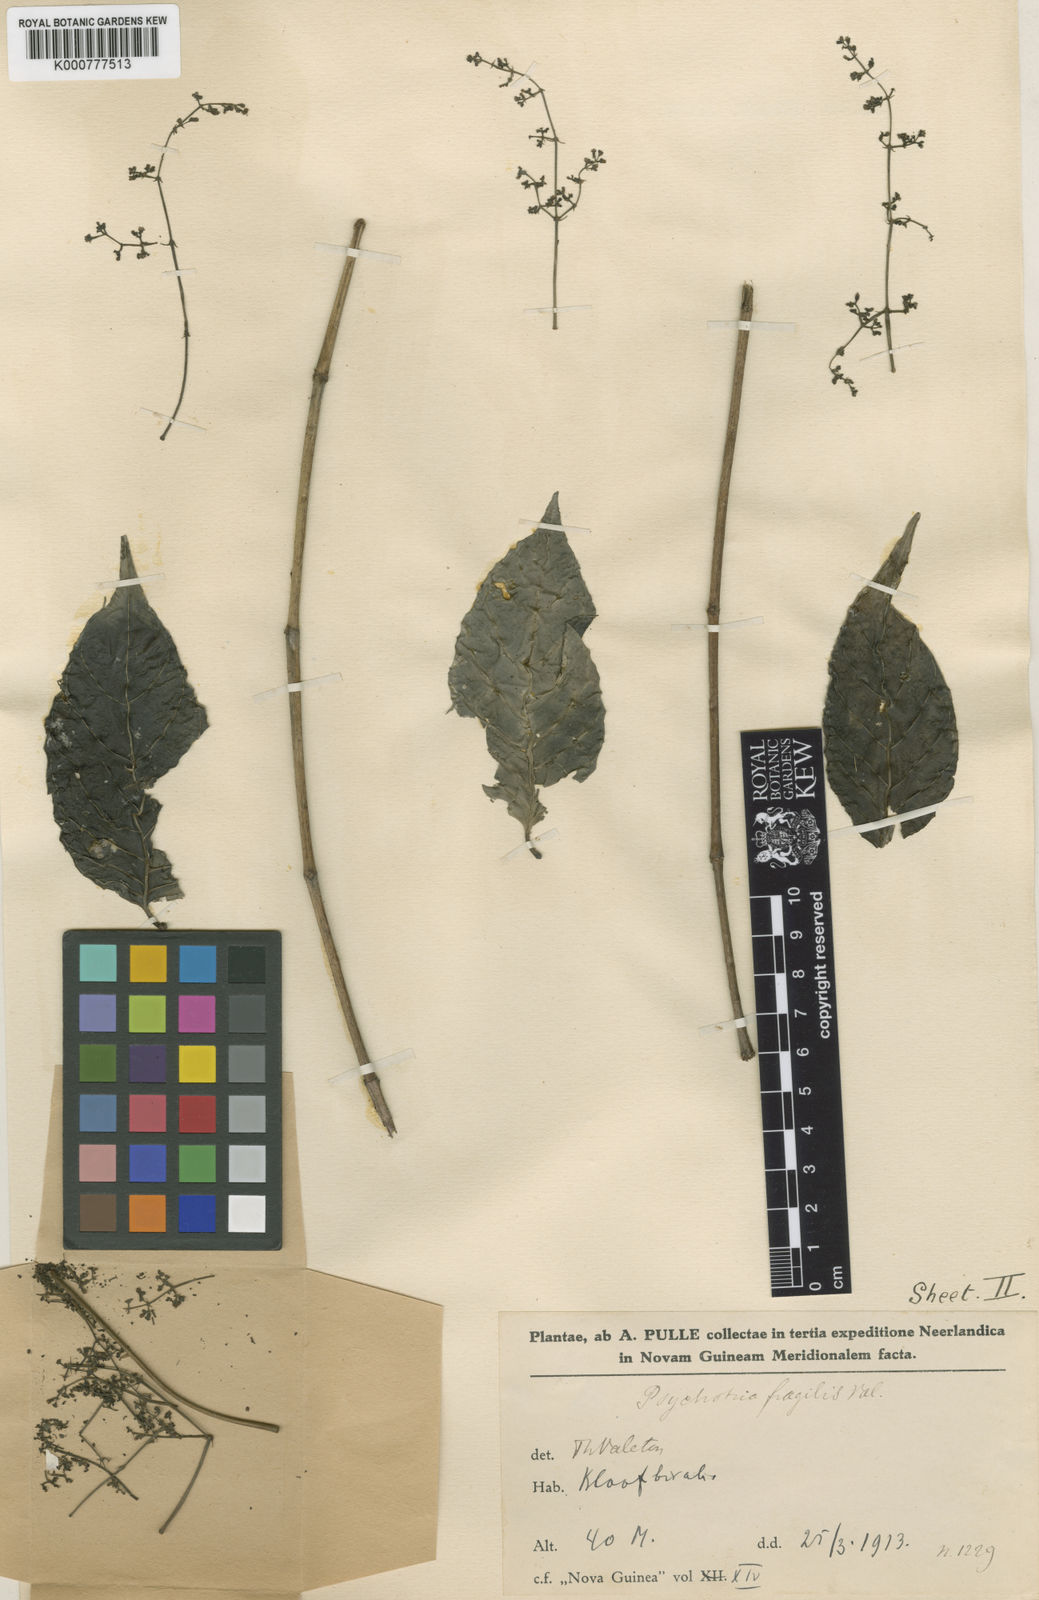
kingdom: Plantae
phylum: Tracheophyta
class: Magnoliopsida
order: Gentianales
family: Rubiaceae
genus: Psychotria
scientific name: Psychotria
